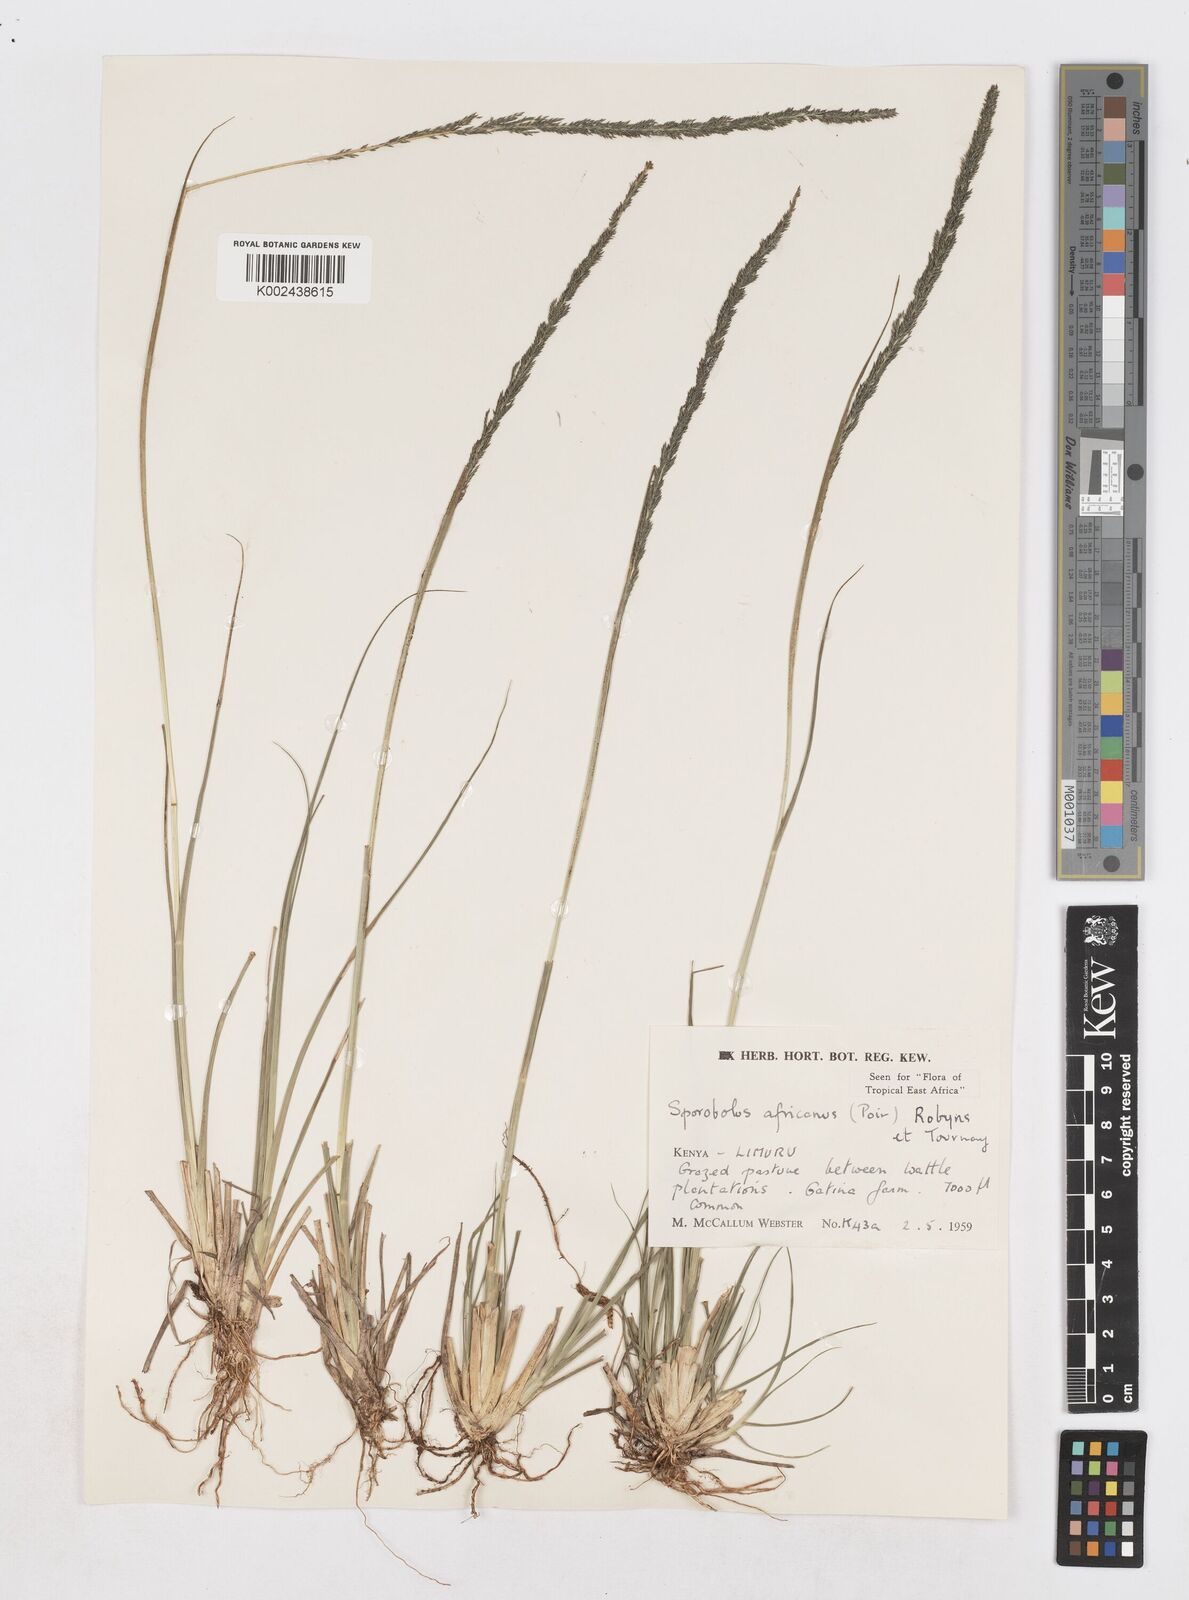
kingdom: Plantae
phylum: Tracheophyta
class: Liliopsida
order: Poales
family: Poaceae
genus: Sporobolus
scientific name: Sporobolus africanus
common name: African dropseed
